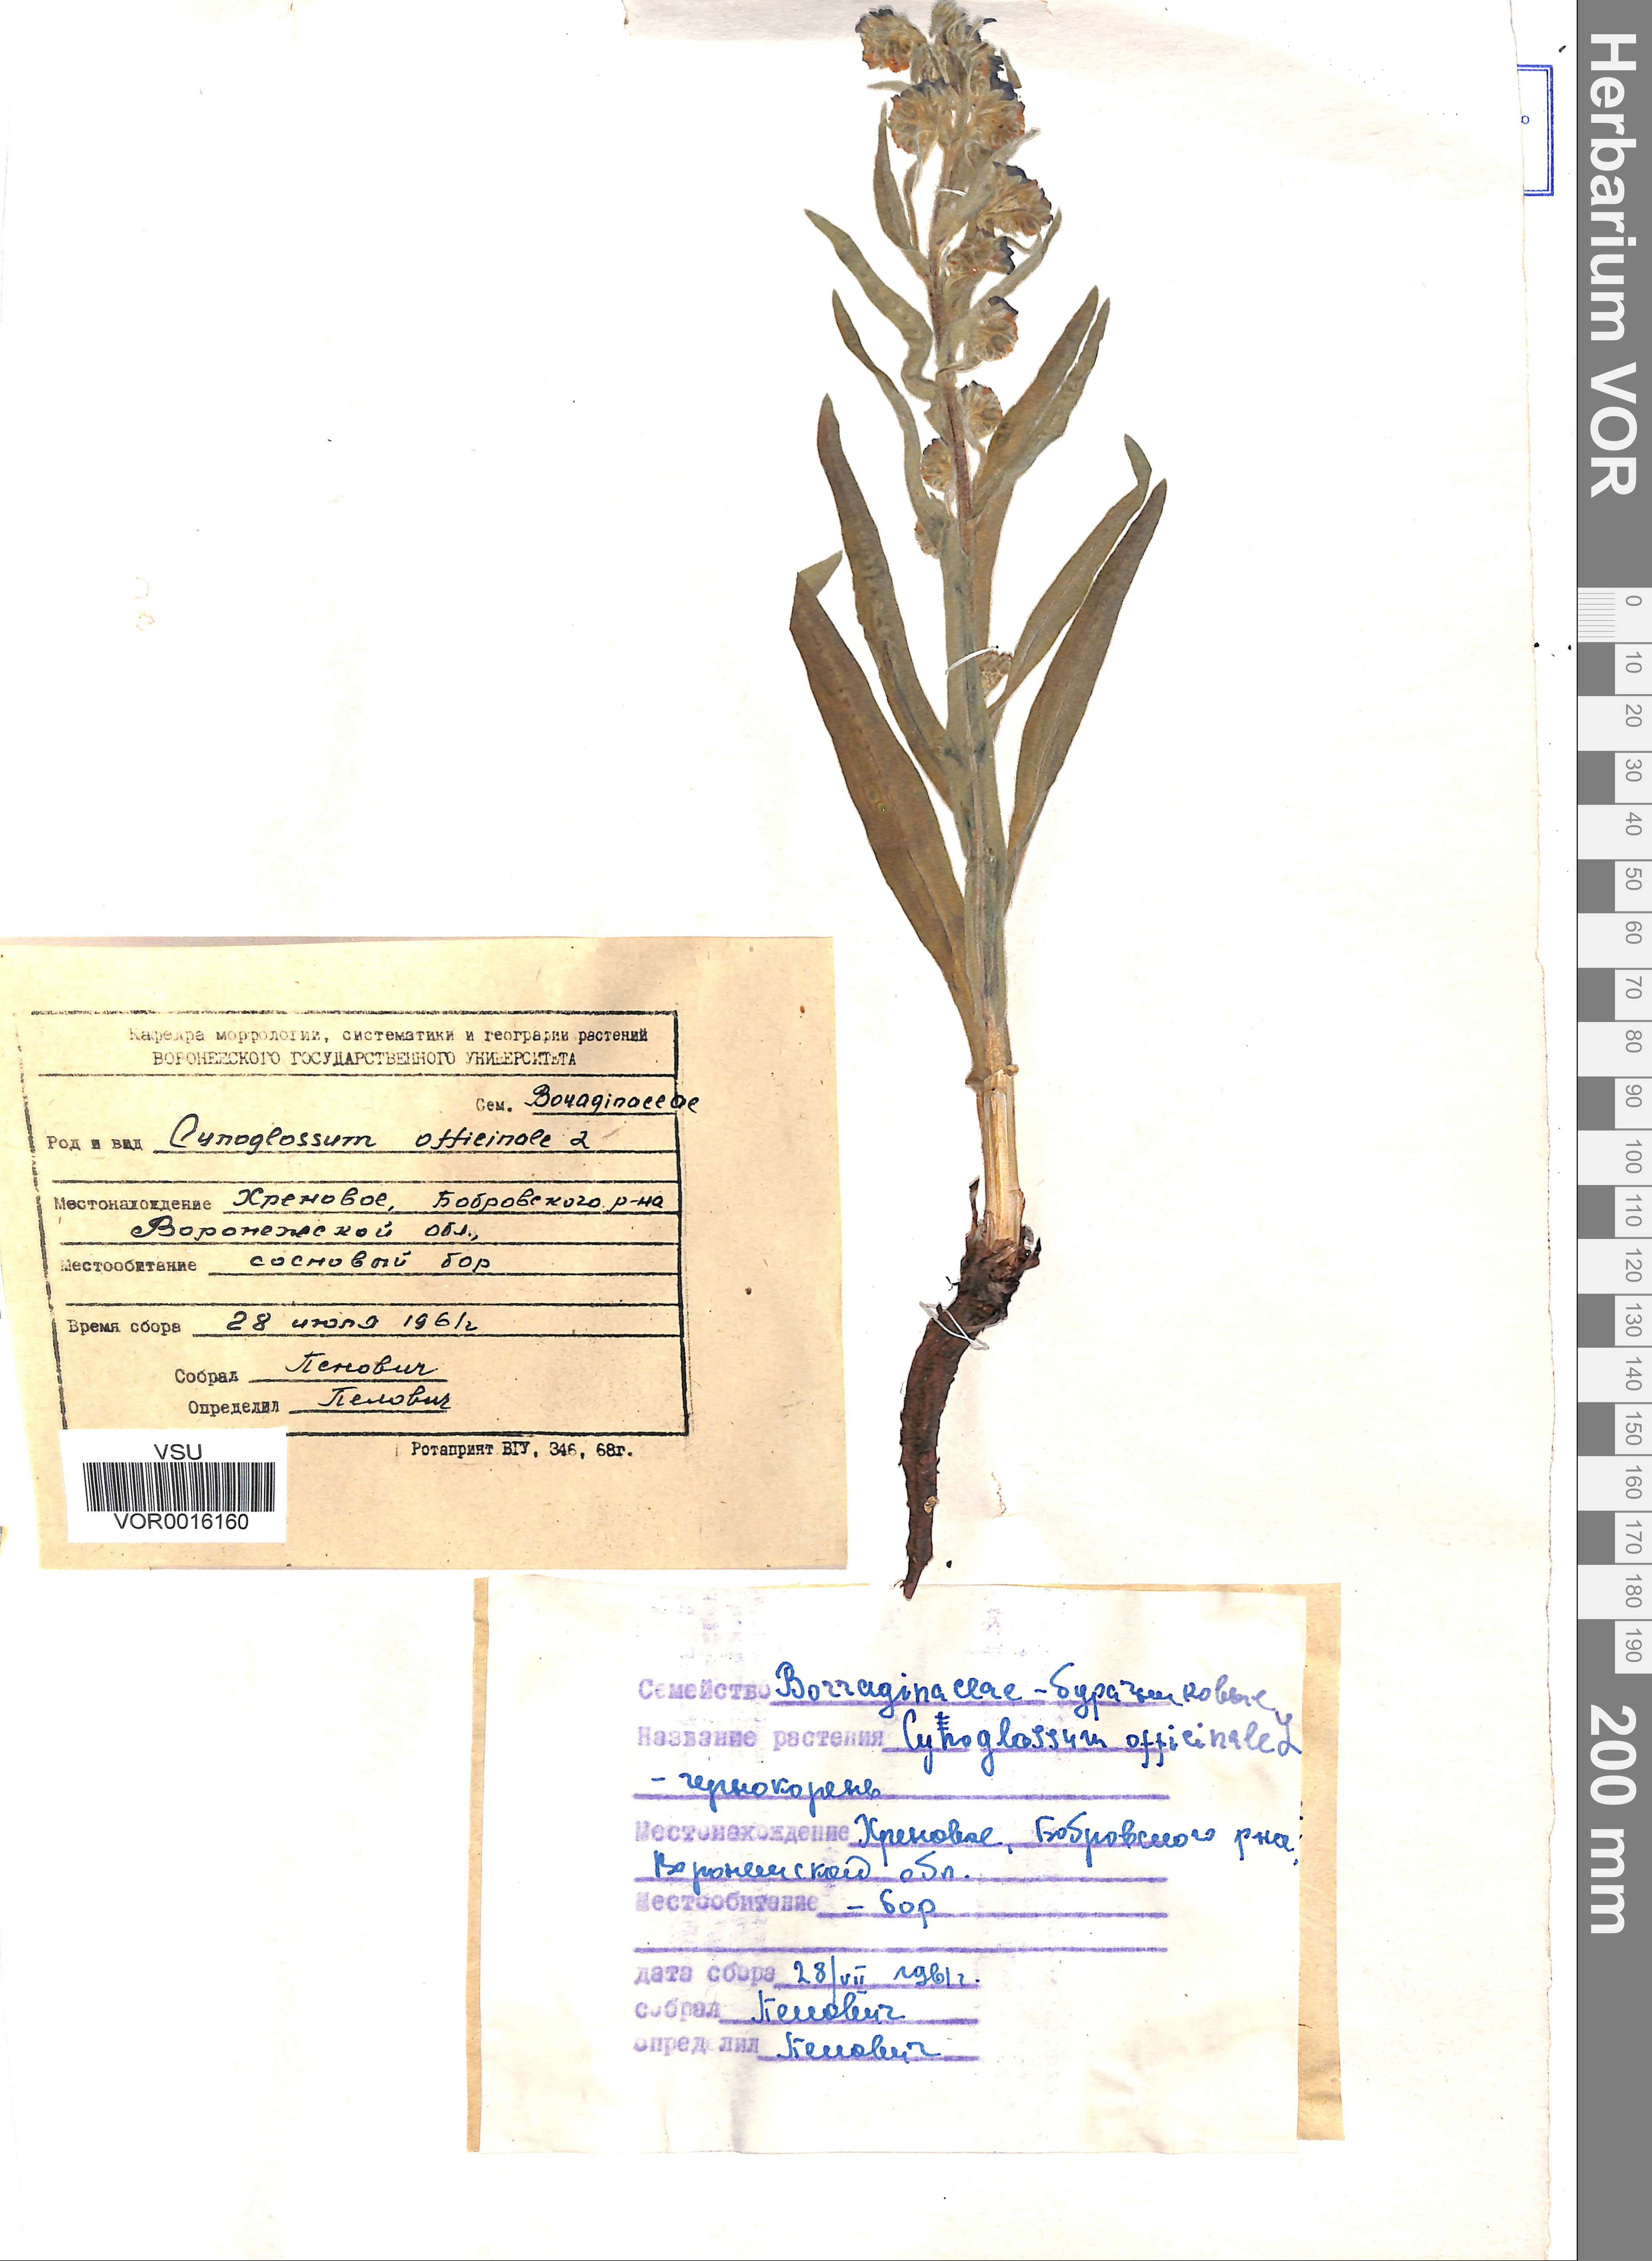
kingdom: Plantae
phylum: Tracheophyta
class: Magnoliopsida
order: Boraginales
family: Boraginaceae
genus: Cynoglossum
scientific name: Cynoglossum officinale
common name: Hound's-tongue
